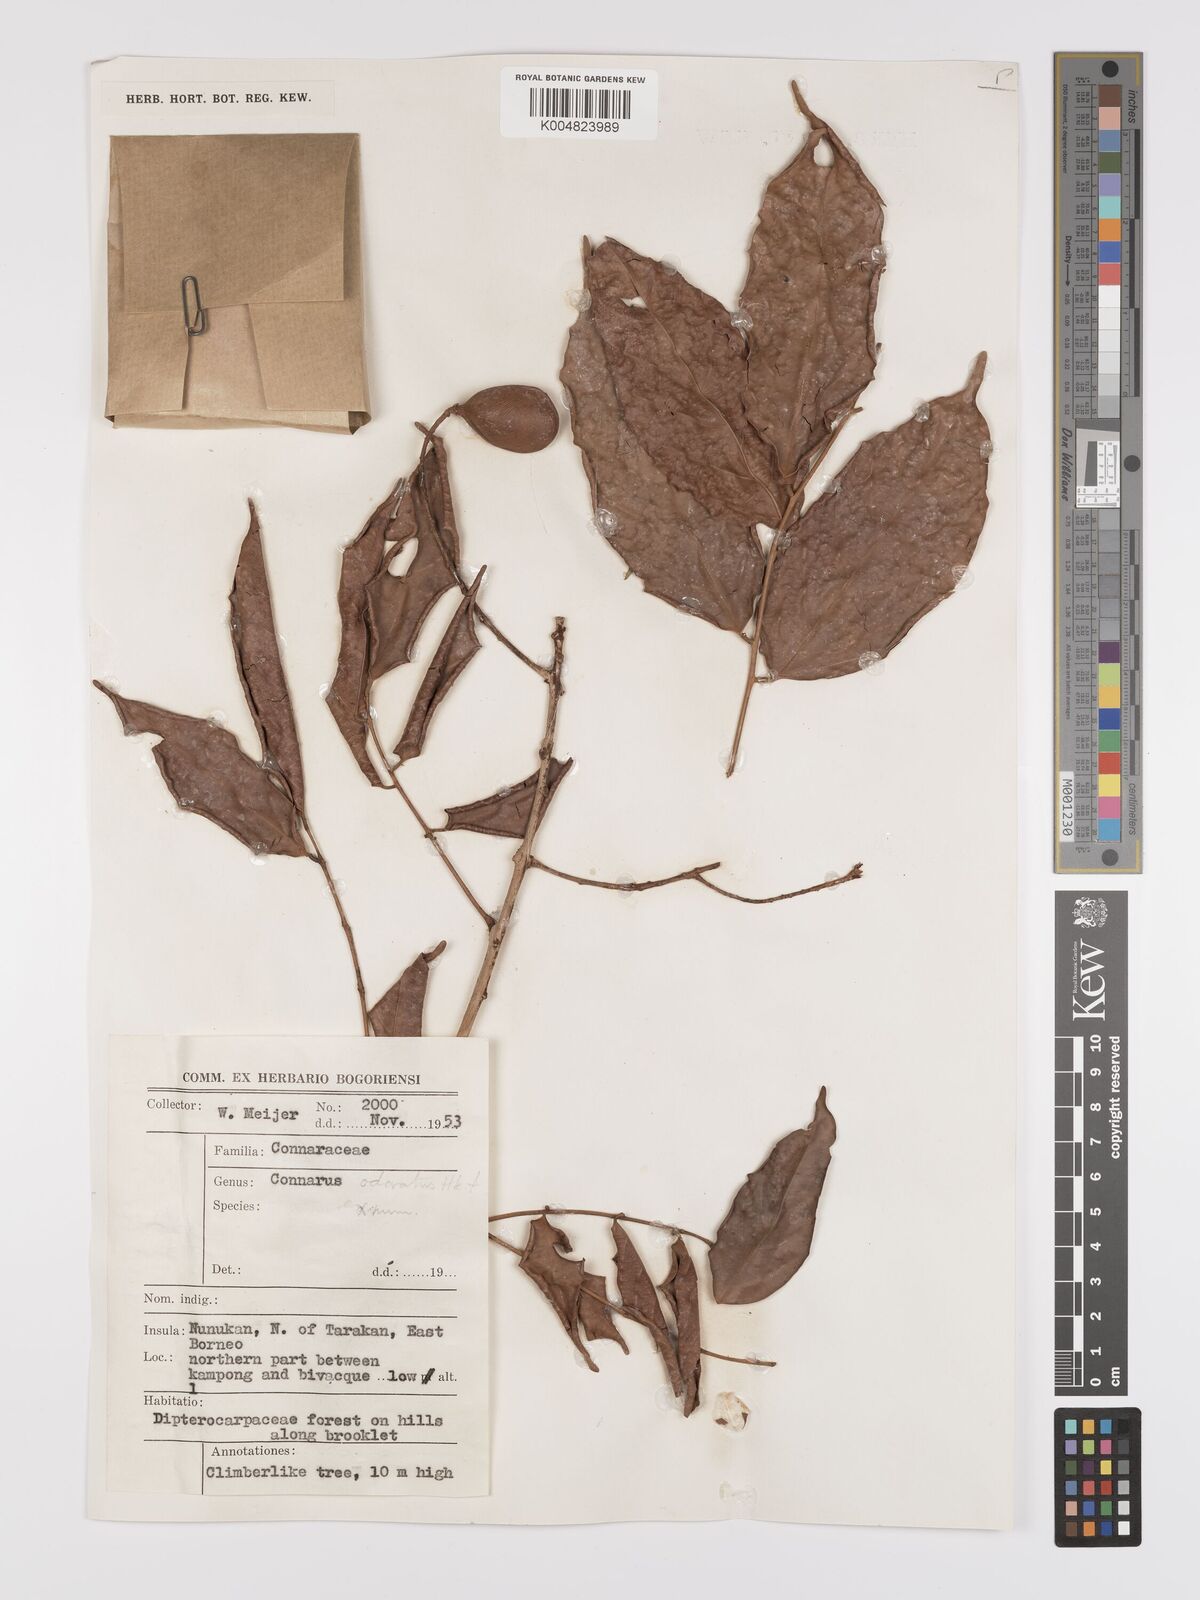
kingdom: Plantae
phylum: Tracheophyta
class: Magnoliopsida
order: Oxalidales
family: Connaraceae
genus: Connarus
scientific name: Connarus odoratus
